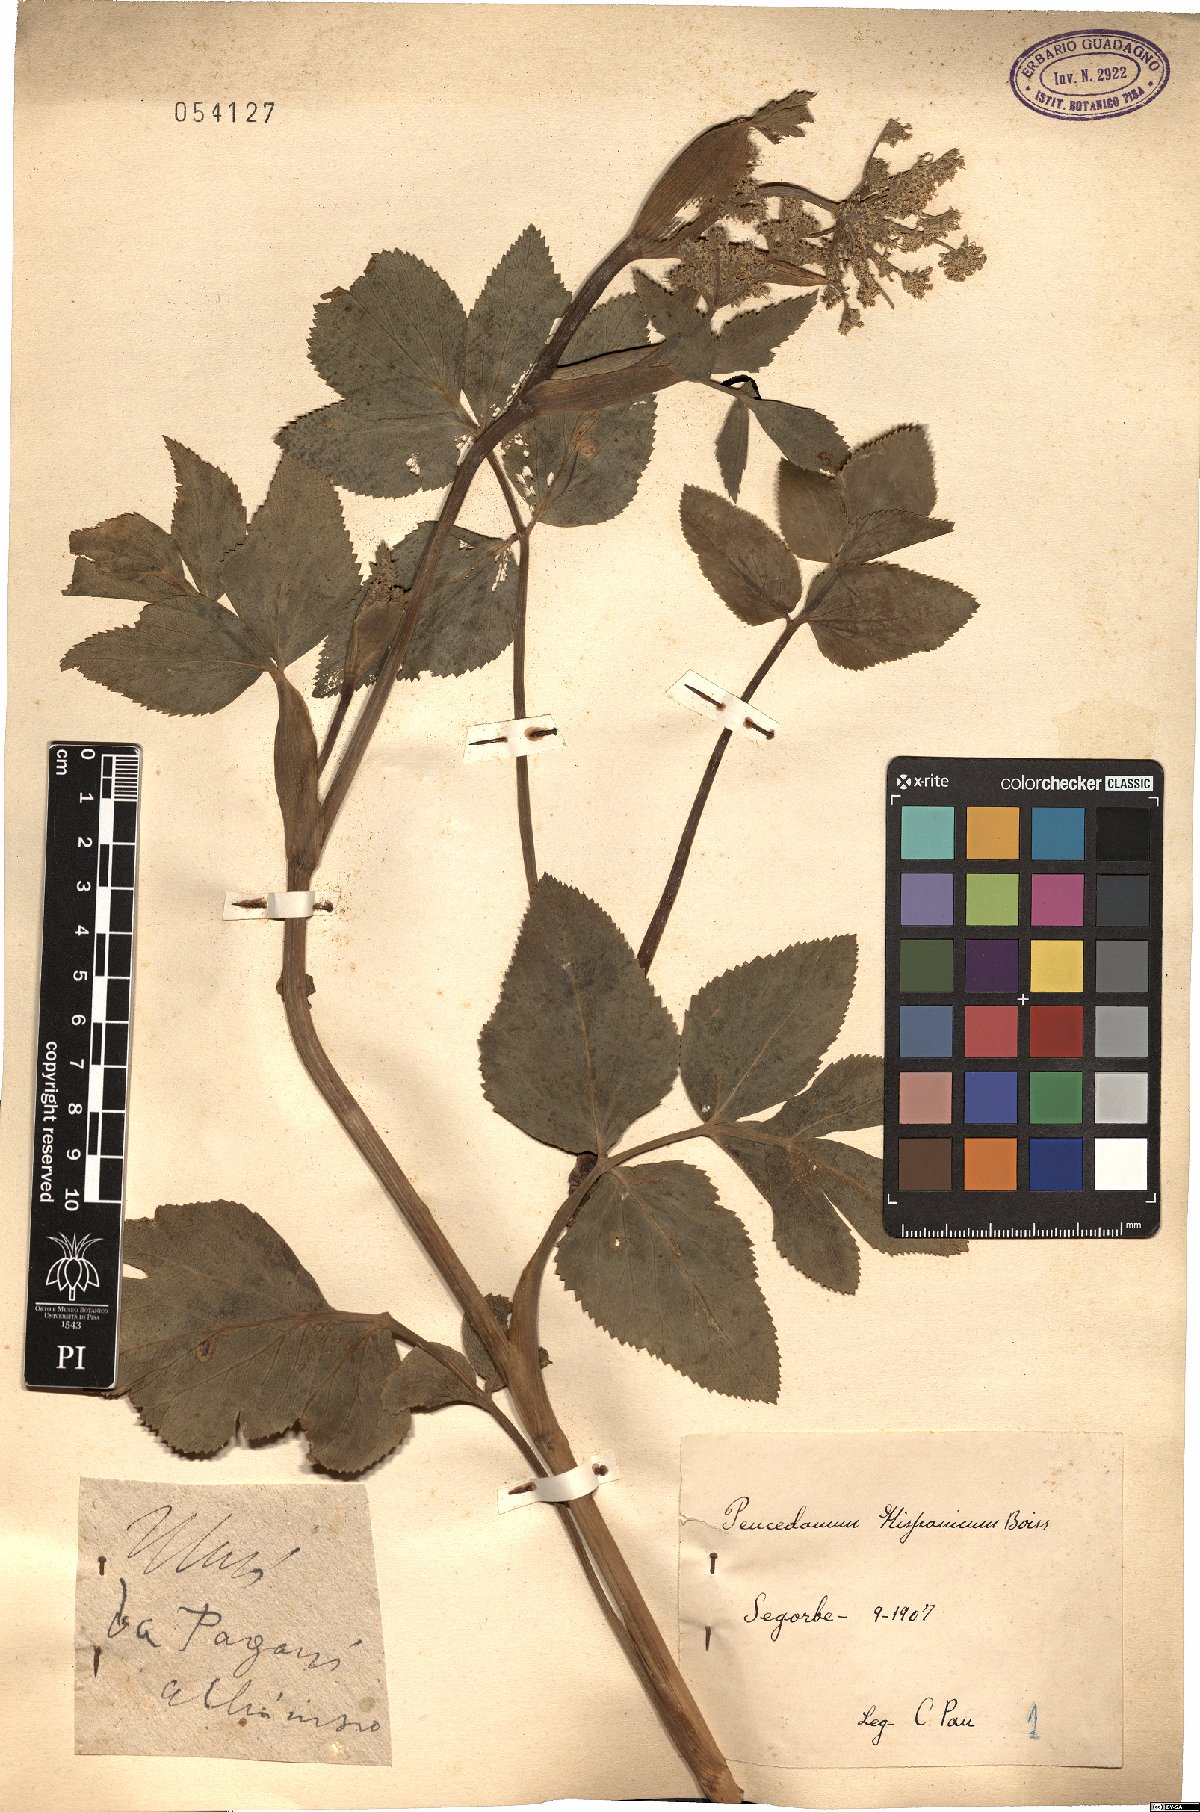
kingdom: Plantae
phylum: Tracheophyta
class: Magnoliopsida
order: Apiales
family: Apiaceae
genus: Imperatoria
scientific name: Imperatoria hispanica
